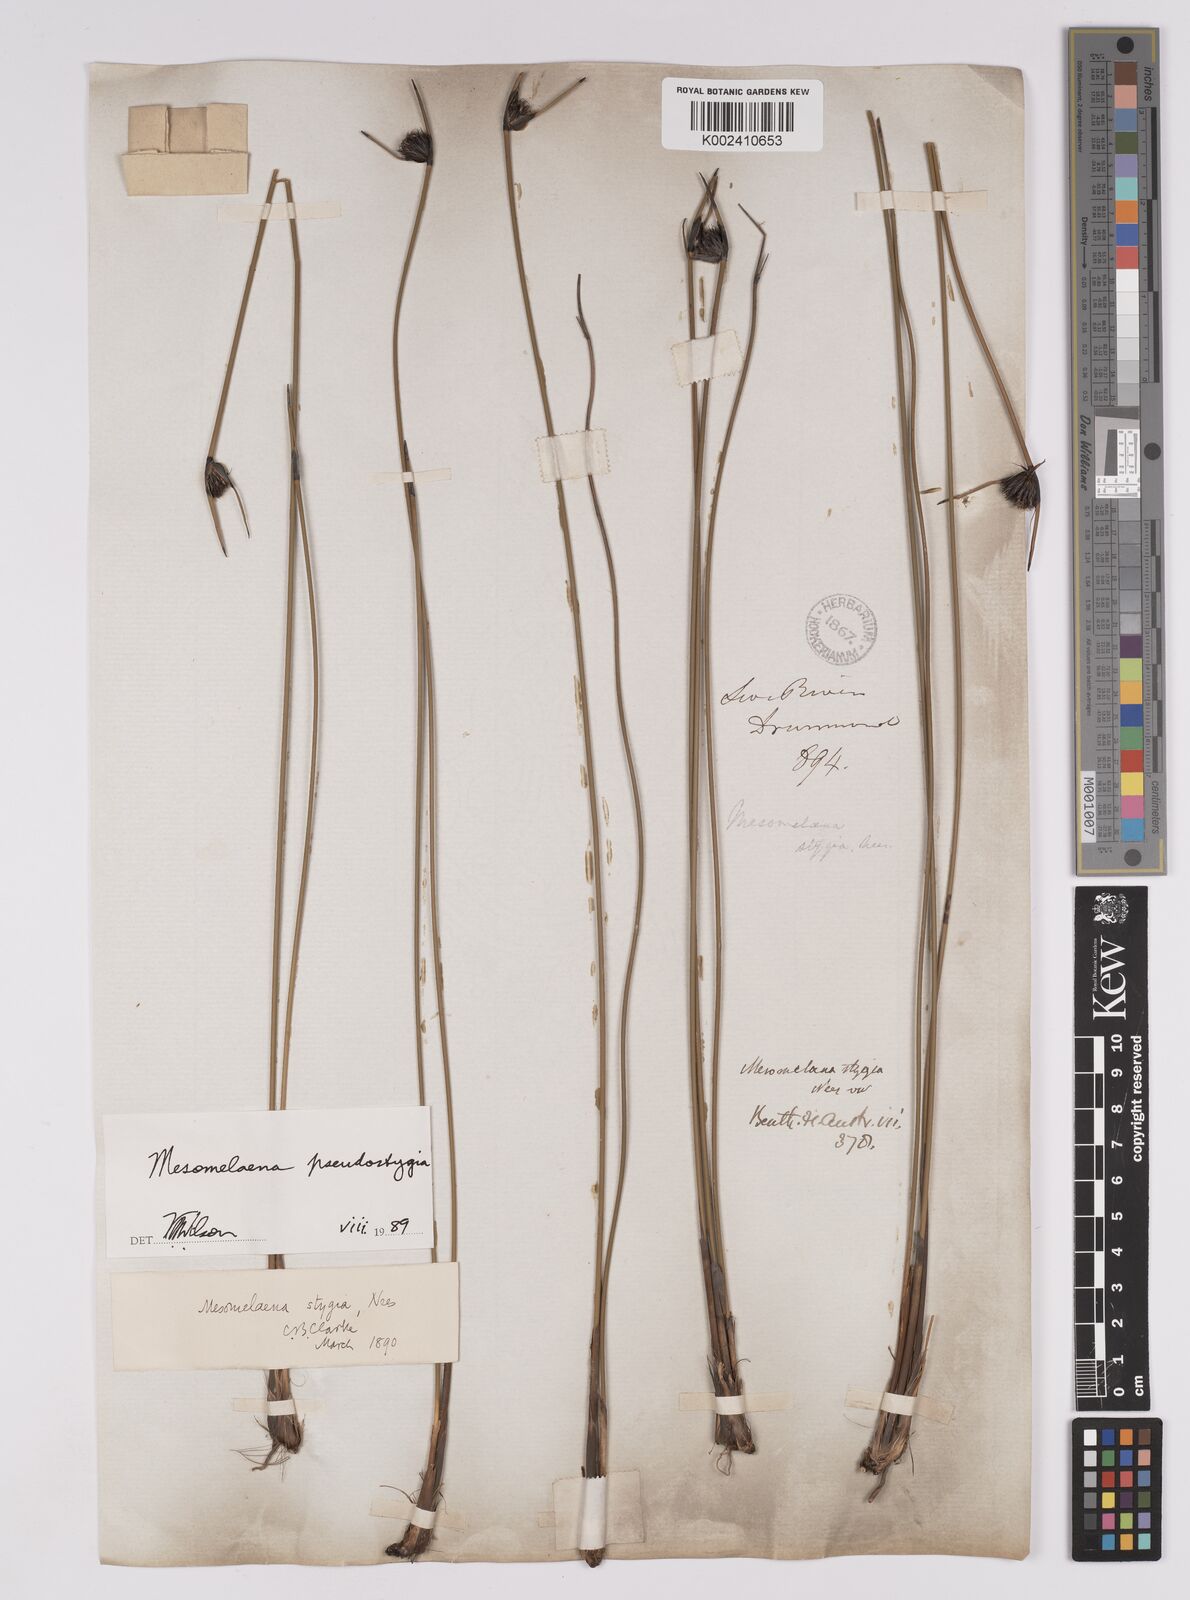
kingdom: Plantae
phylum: Tracheophyta
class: Liliopsida
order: Poales
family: Cyperaceae
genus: Mesomelaena
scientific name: Mesomelaena pseudostygia
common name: Semaphore sedge
